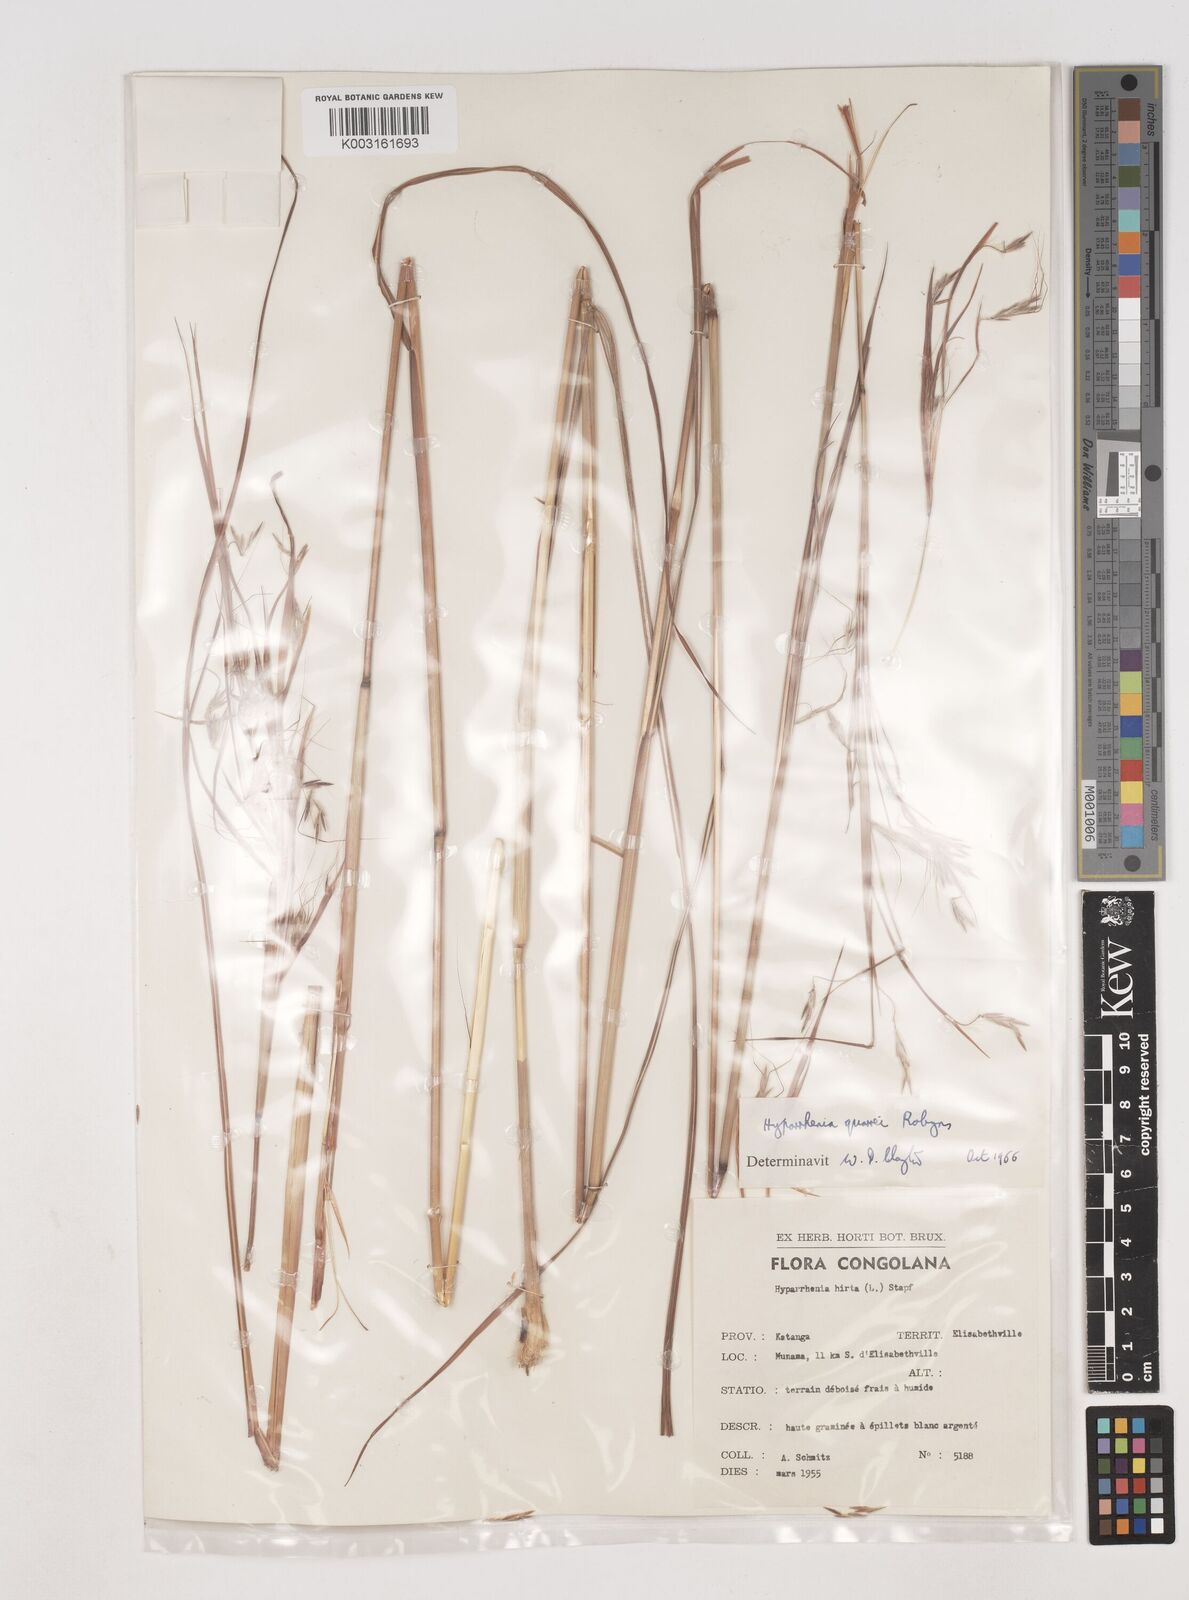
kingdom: Plantae
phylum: Tracheophyta
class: Liliopsida
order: Poales
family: Poaceae
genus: Hyparrhenia
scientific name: Hyparrhenia quarrei
